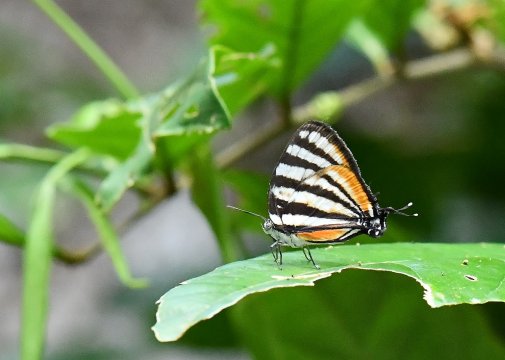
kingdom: Animalia
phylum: Arthropoda
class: Insecta
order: Lepidoptera
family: Lycaenidae
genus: Arawacus
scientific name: Arawacus togarna
